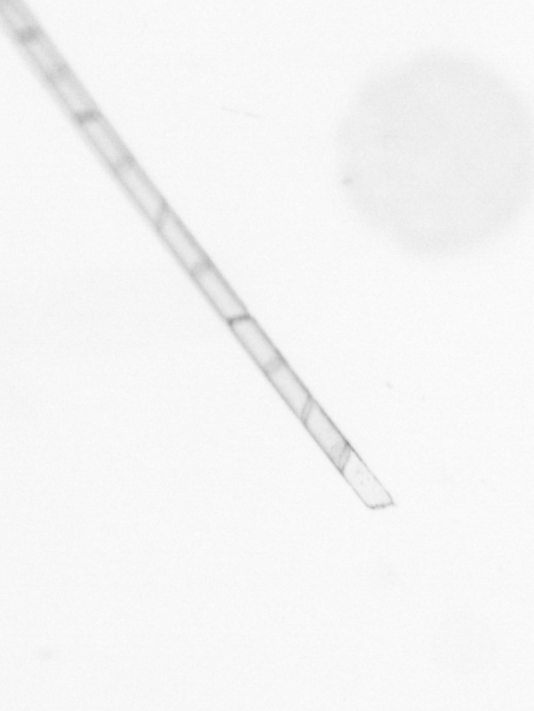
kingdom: Chromista
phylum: Ochrophyta
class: Bacillariophyceae
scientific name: Bacillariophyceae
